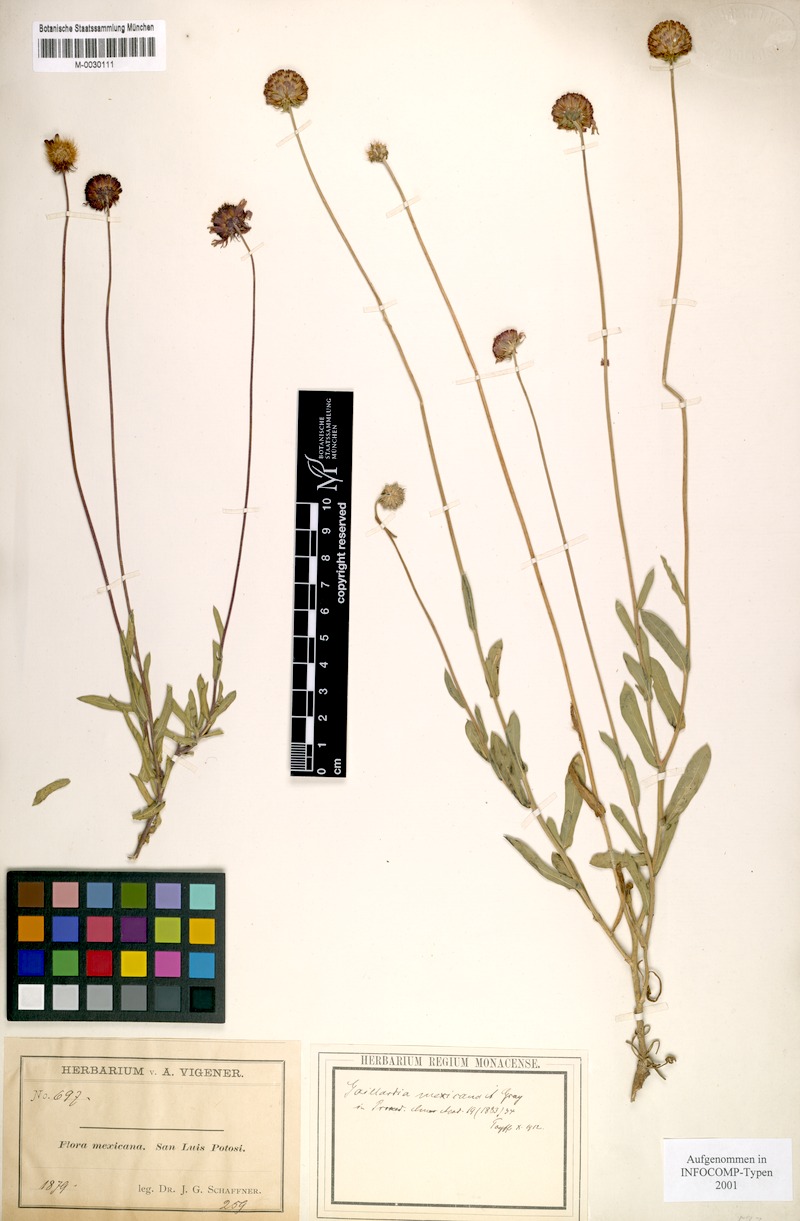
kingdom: Plantae
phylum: Tracheophyta
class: Magnoliopsida
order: Asterales
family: Asteraceae
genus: Gaillardia
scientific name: Gaillardia mexicana
